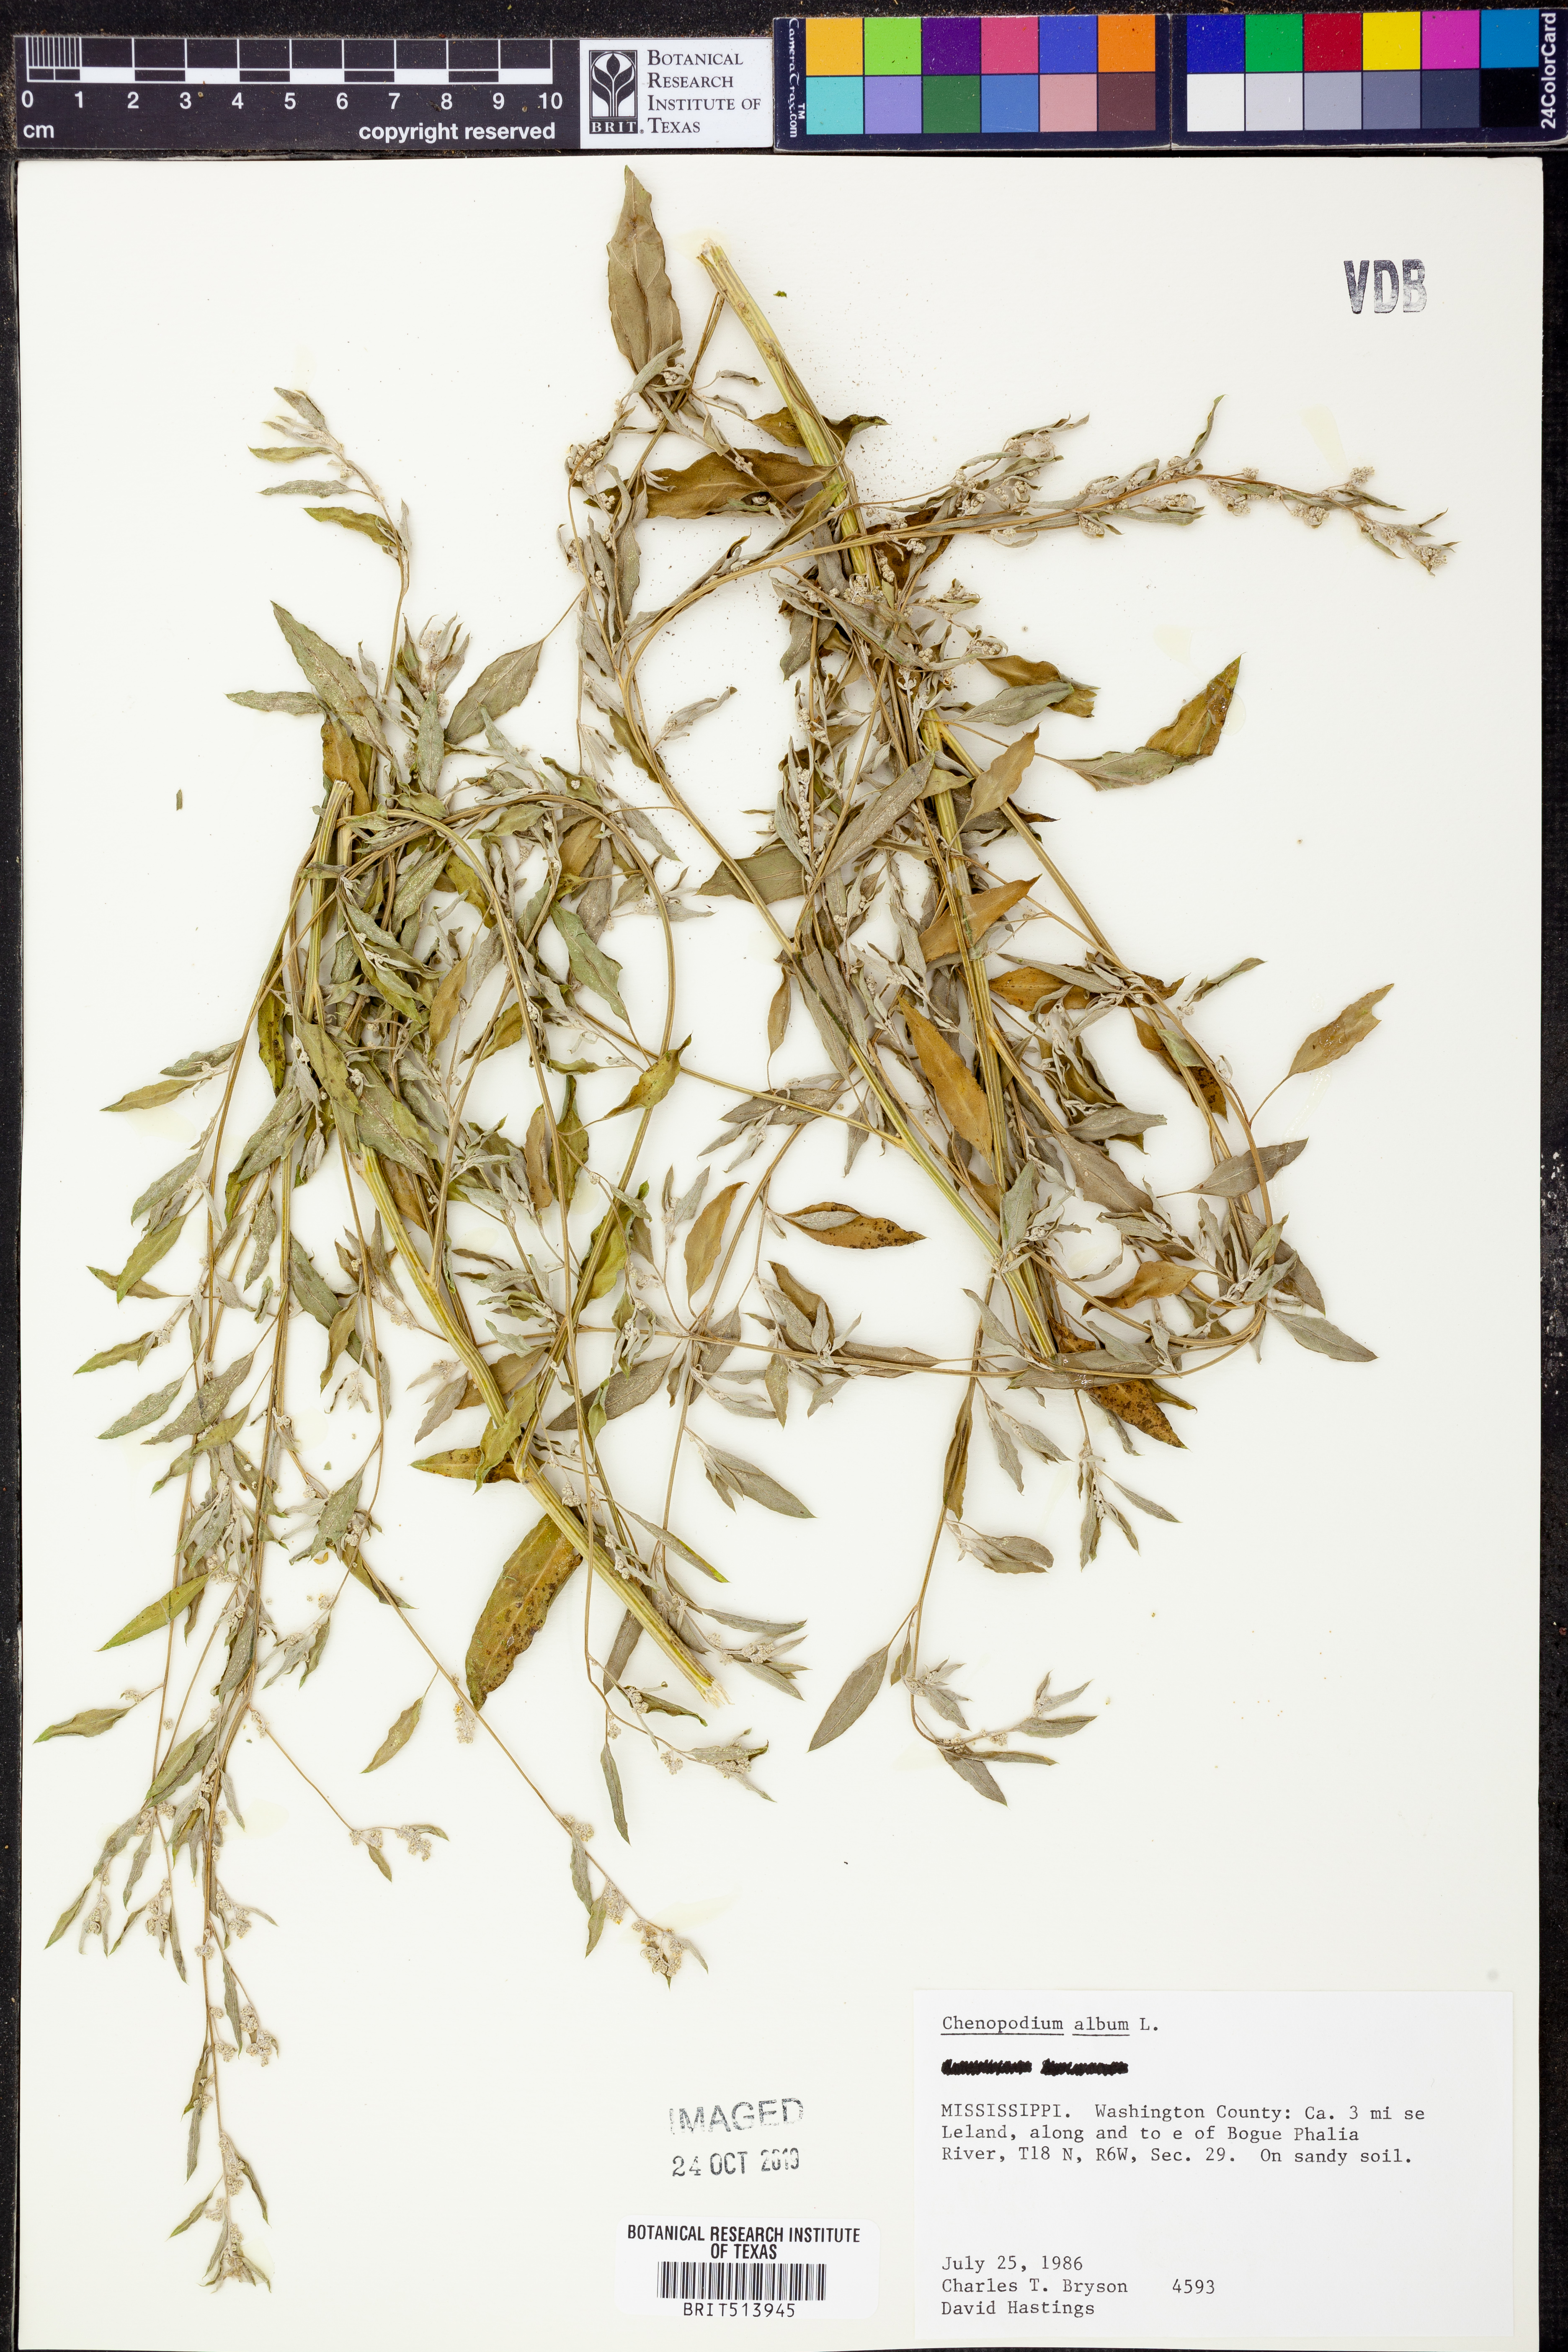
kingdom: Plantae
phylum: Tracheophyta
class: Magnoliopsida
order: Caryophyllales
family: Amaranthaceae
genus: Chenopodium
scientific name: Chenopodium album
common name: Fat-hen
